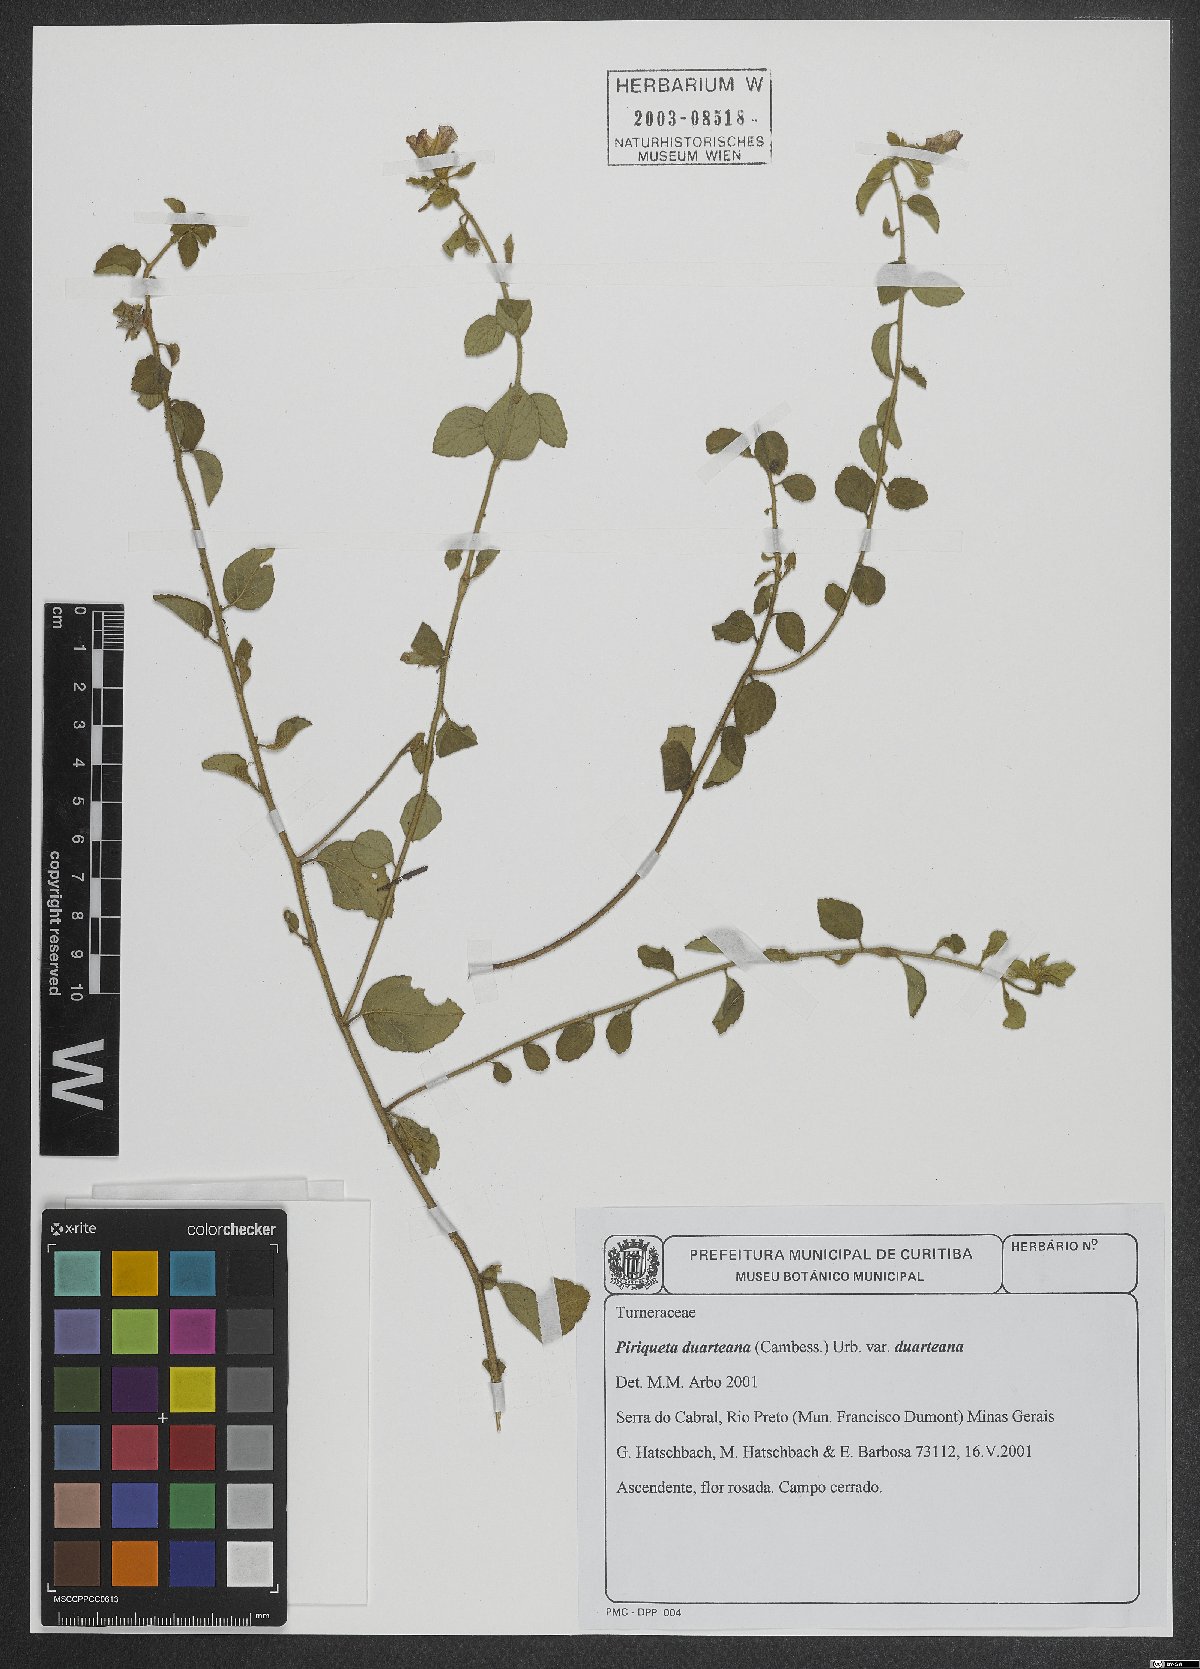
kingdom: Plantae
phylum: Tracheophyta
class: Magnoliopsida
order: Malpighiales
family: Turneraceae
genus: Piriqueta
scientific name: Piriqueta duarteana
